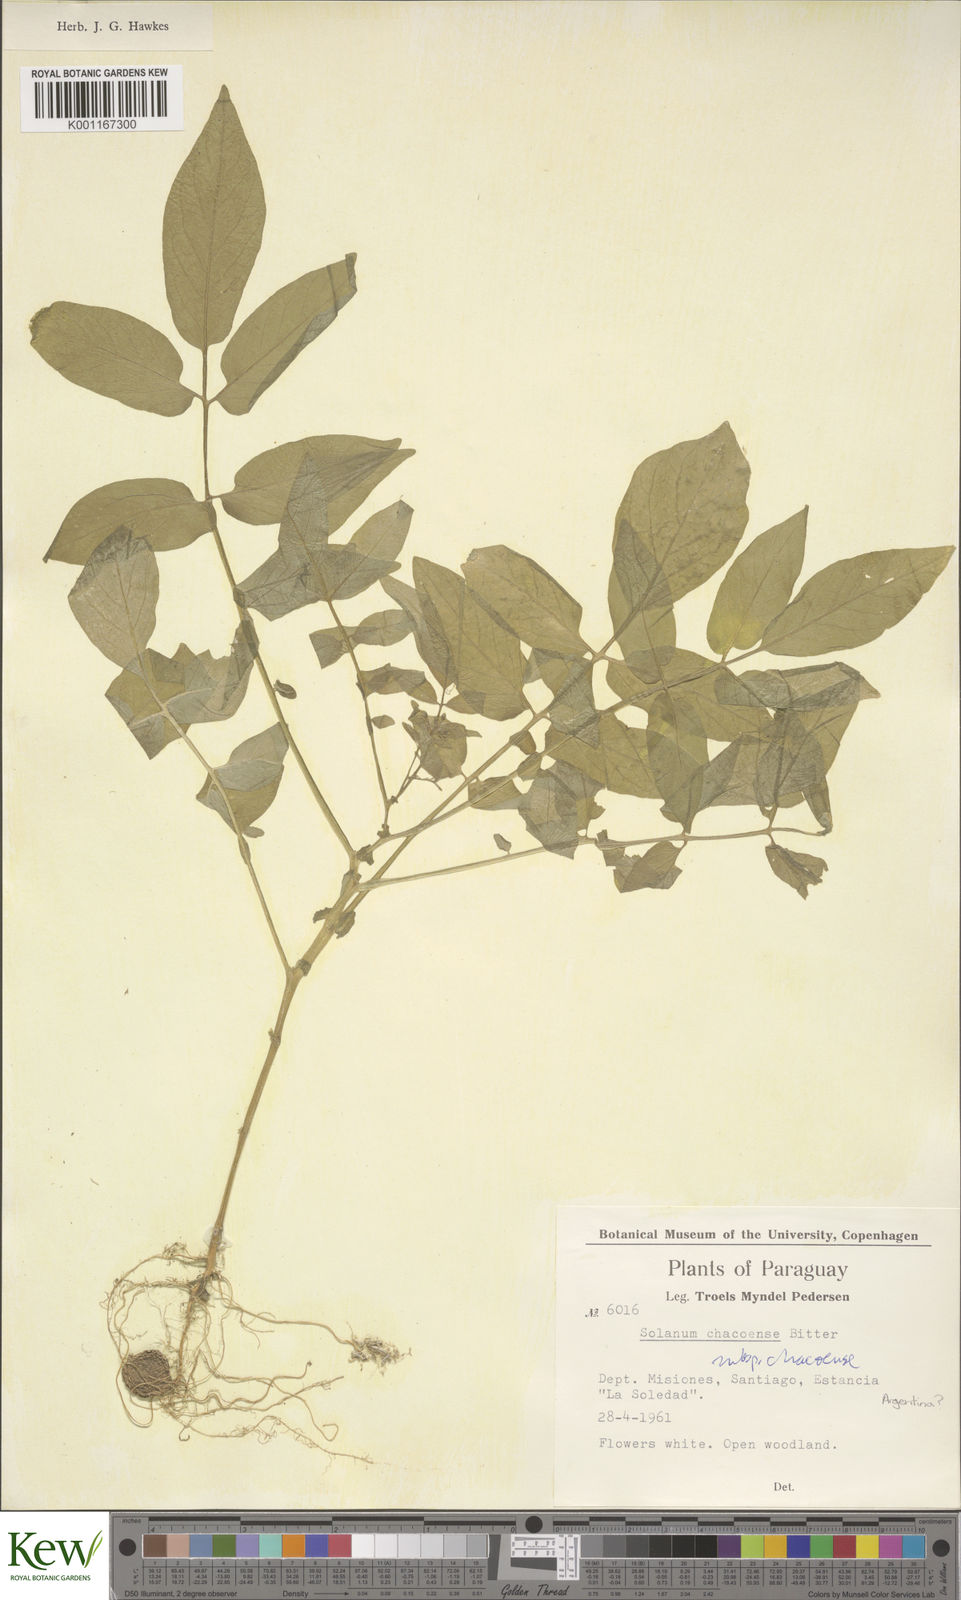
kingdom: Plantae
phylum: Tracheophyta
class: Magnoliopsida
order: Solanales
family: Solanaceae
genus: Solanum
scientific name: Solanum
